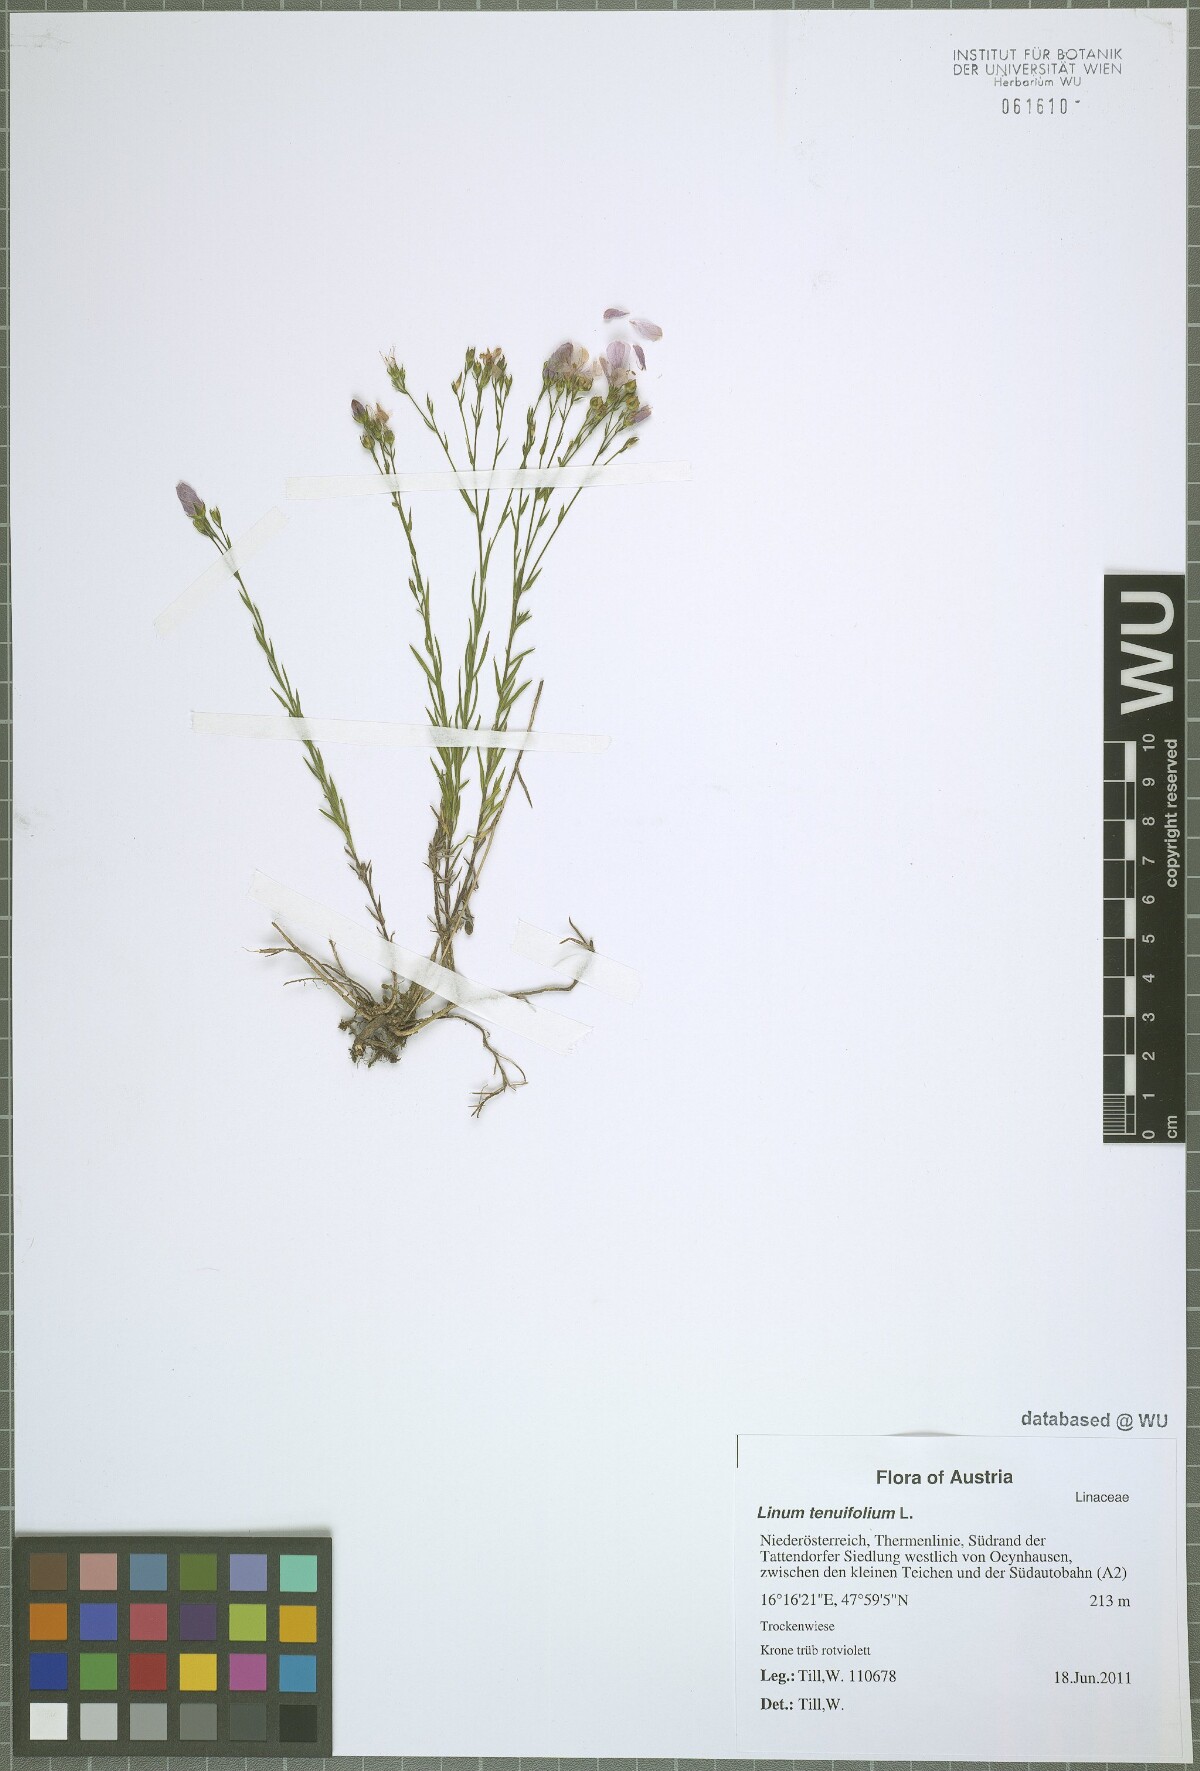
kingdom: Plantae
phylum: Tracheophyta
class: Magnoliopsida
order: Malpighiales
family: Linaceae
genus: Linum
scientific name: Linum tenuifolium
